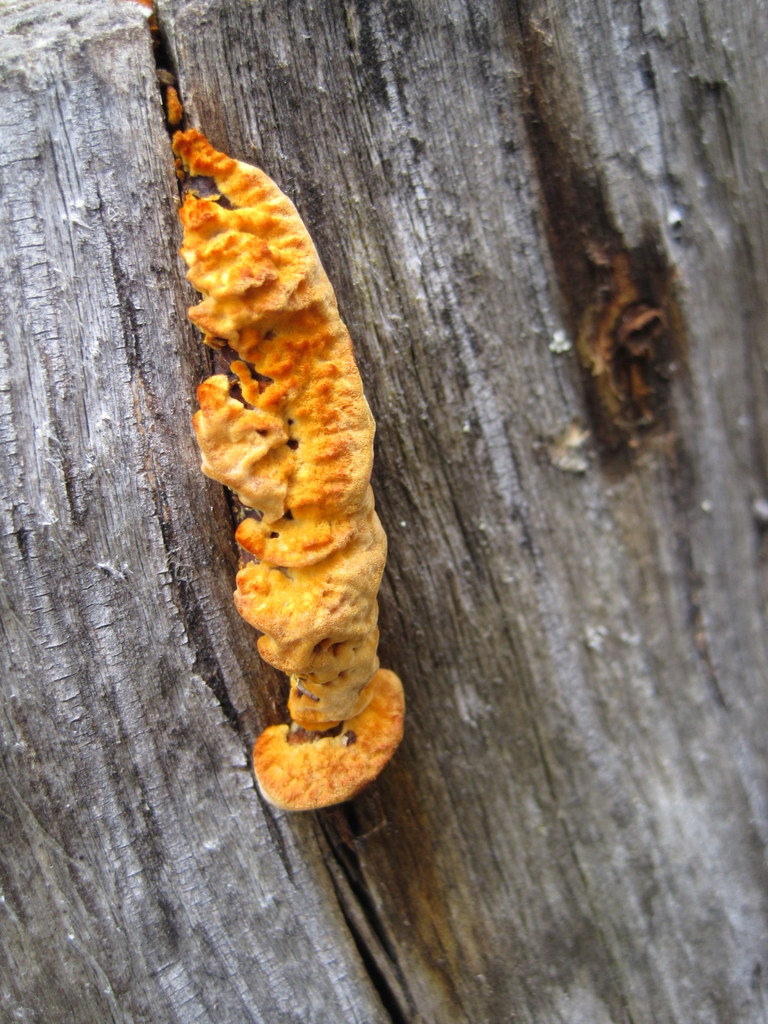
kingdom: Fungi
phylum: Basidiomycota
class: Agaricomycetes
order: Gloeophyllales
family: Gloeophyllaceae
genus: Gloeophyllum
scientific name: Gloeophyllum odoratum
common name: duftende korkhat
